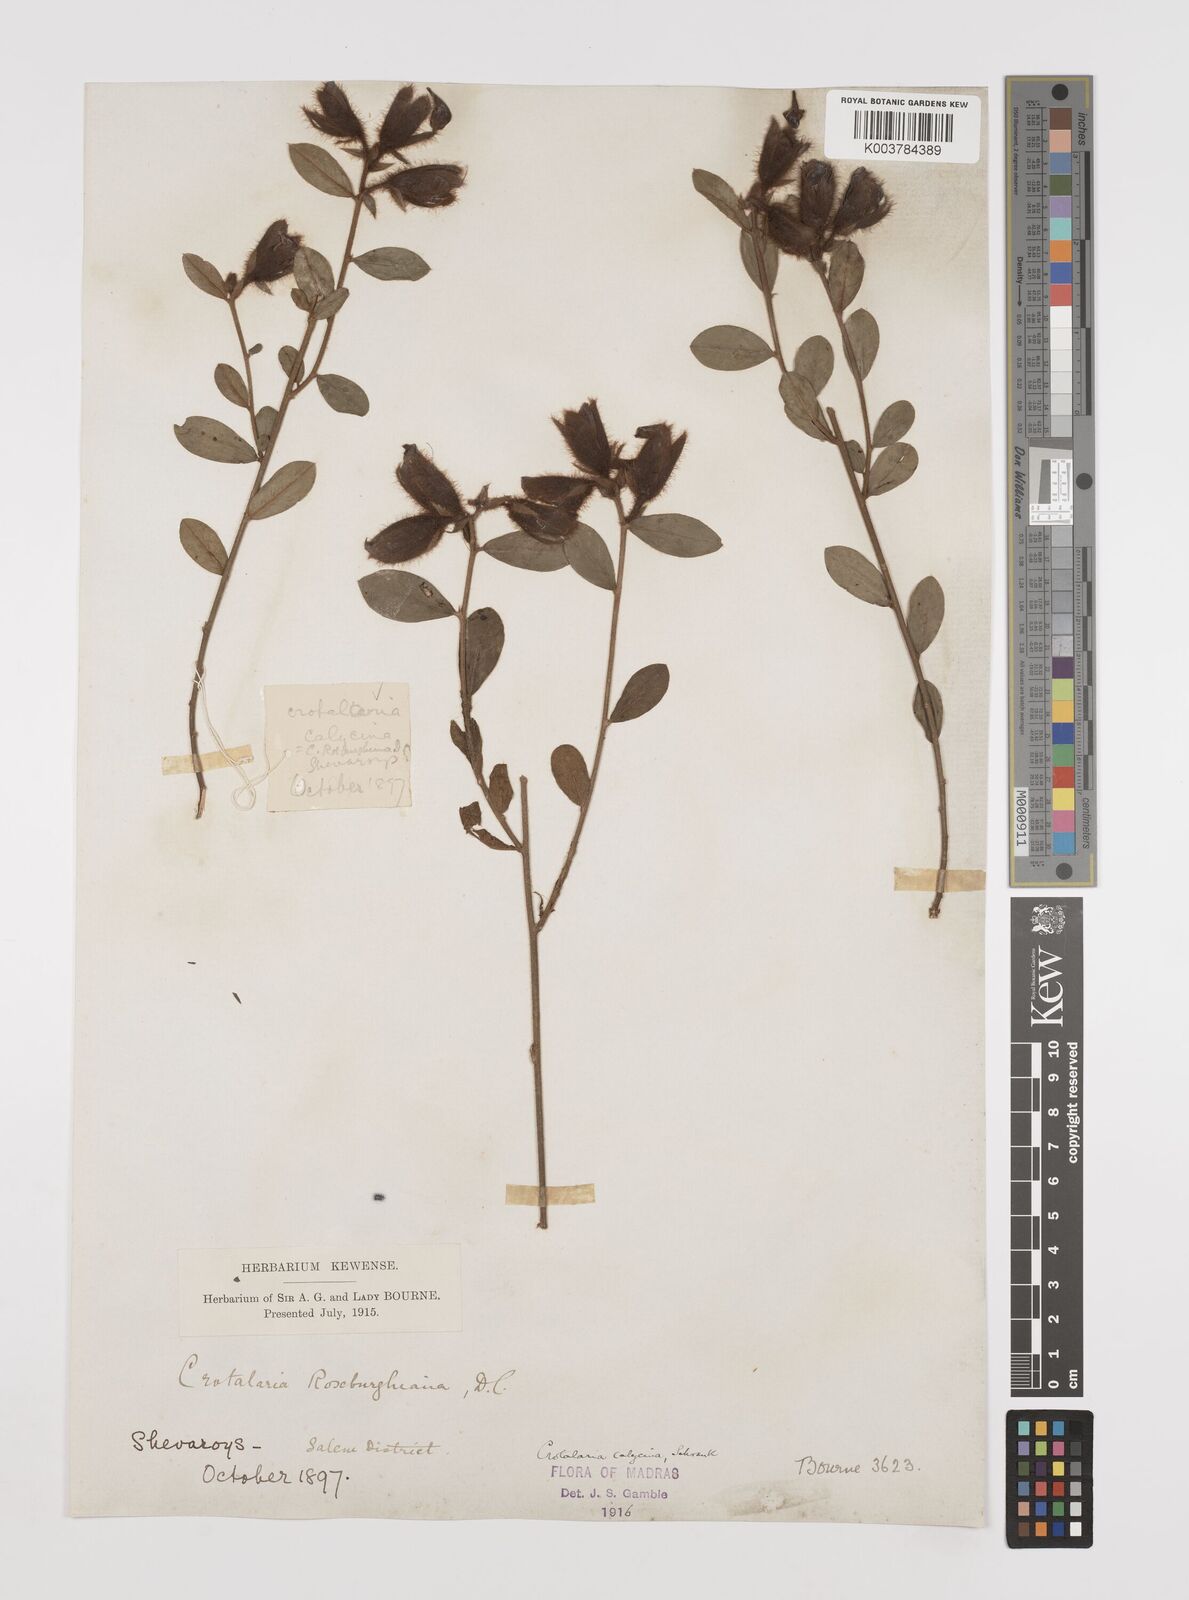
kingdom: Plantae
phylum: Tracheophyta
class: Magnoliopsida
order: Fabales
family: Fabaceae
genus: Crotalaria
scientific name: Crotalaria calycina
